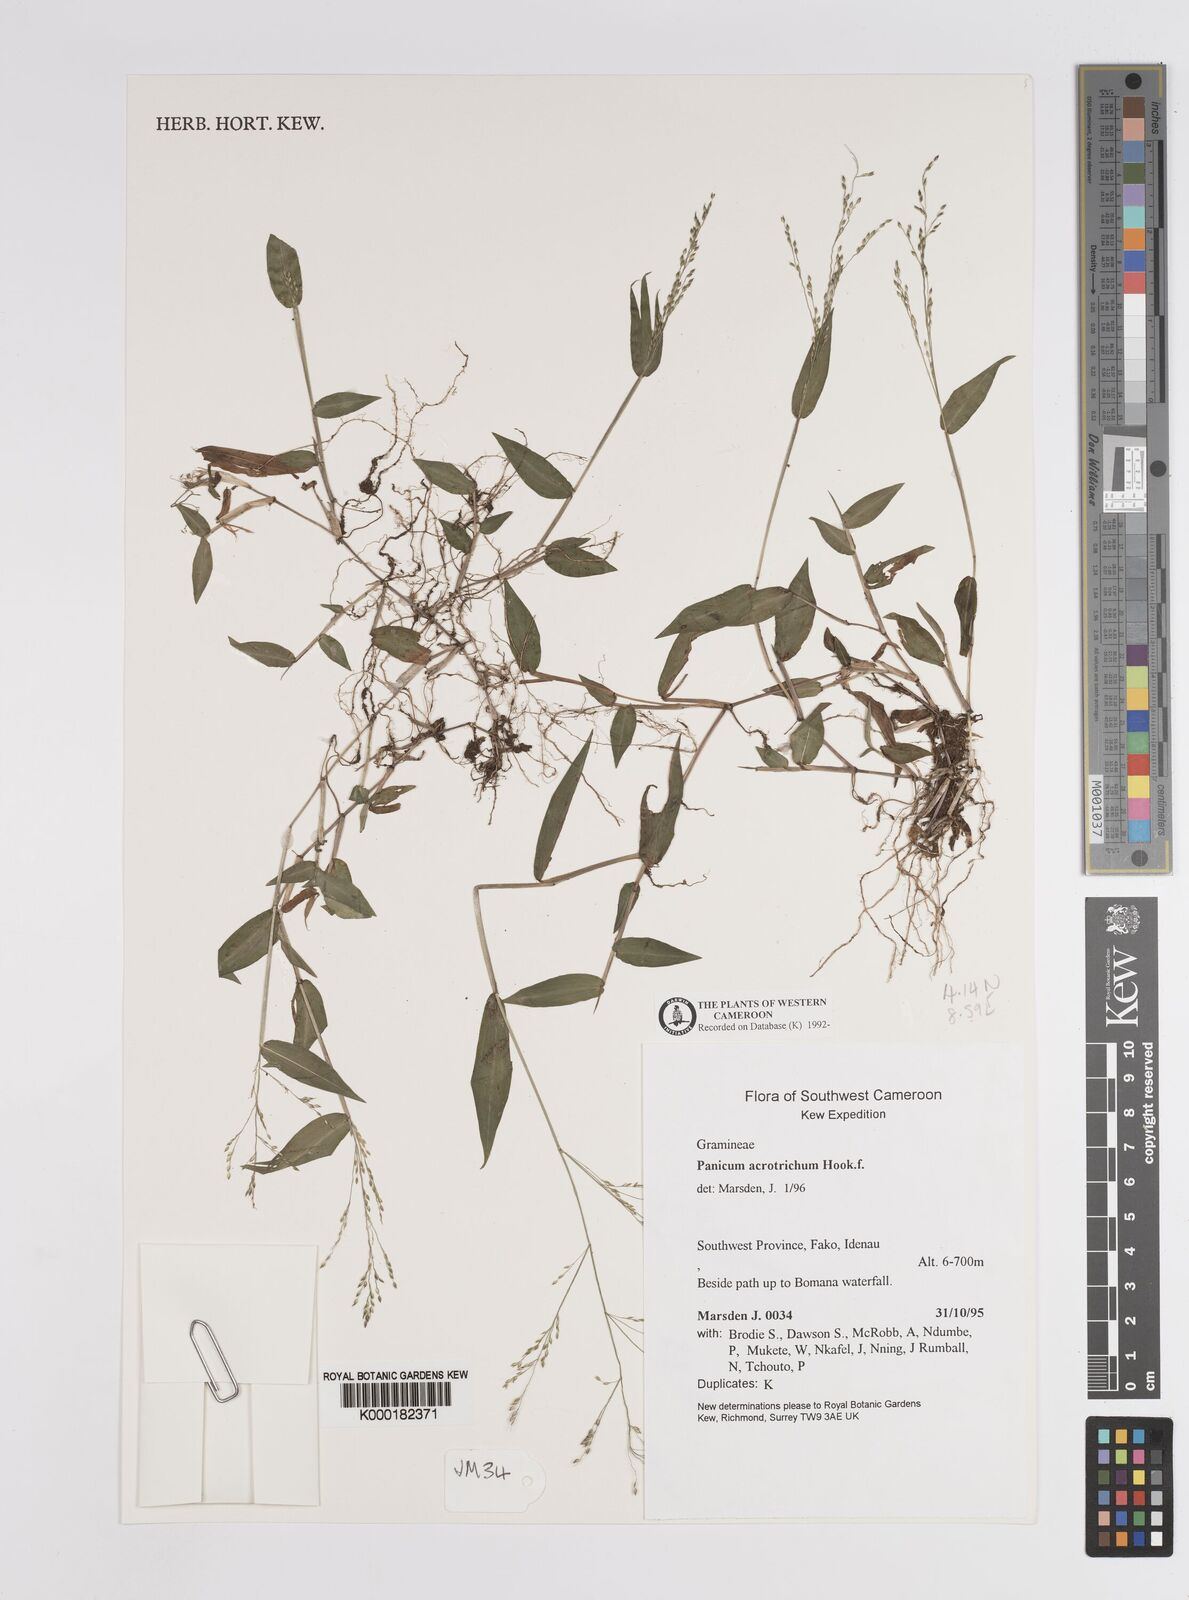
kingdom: Plantae
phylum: Tracheophyta
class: Liliopsida
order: Poales
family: Poaceae
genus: Panicum
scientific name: Panicum acrotrichum
